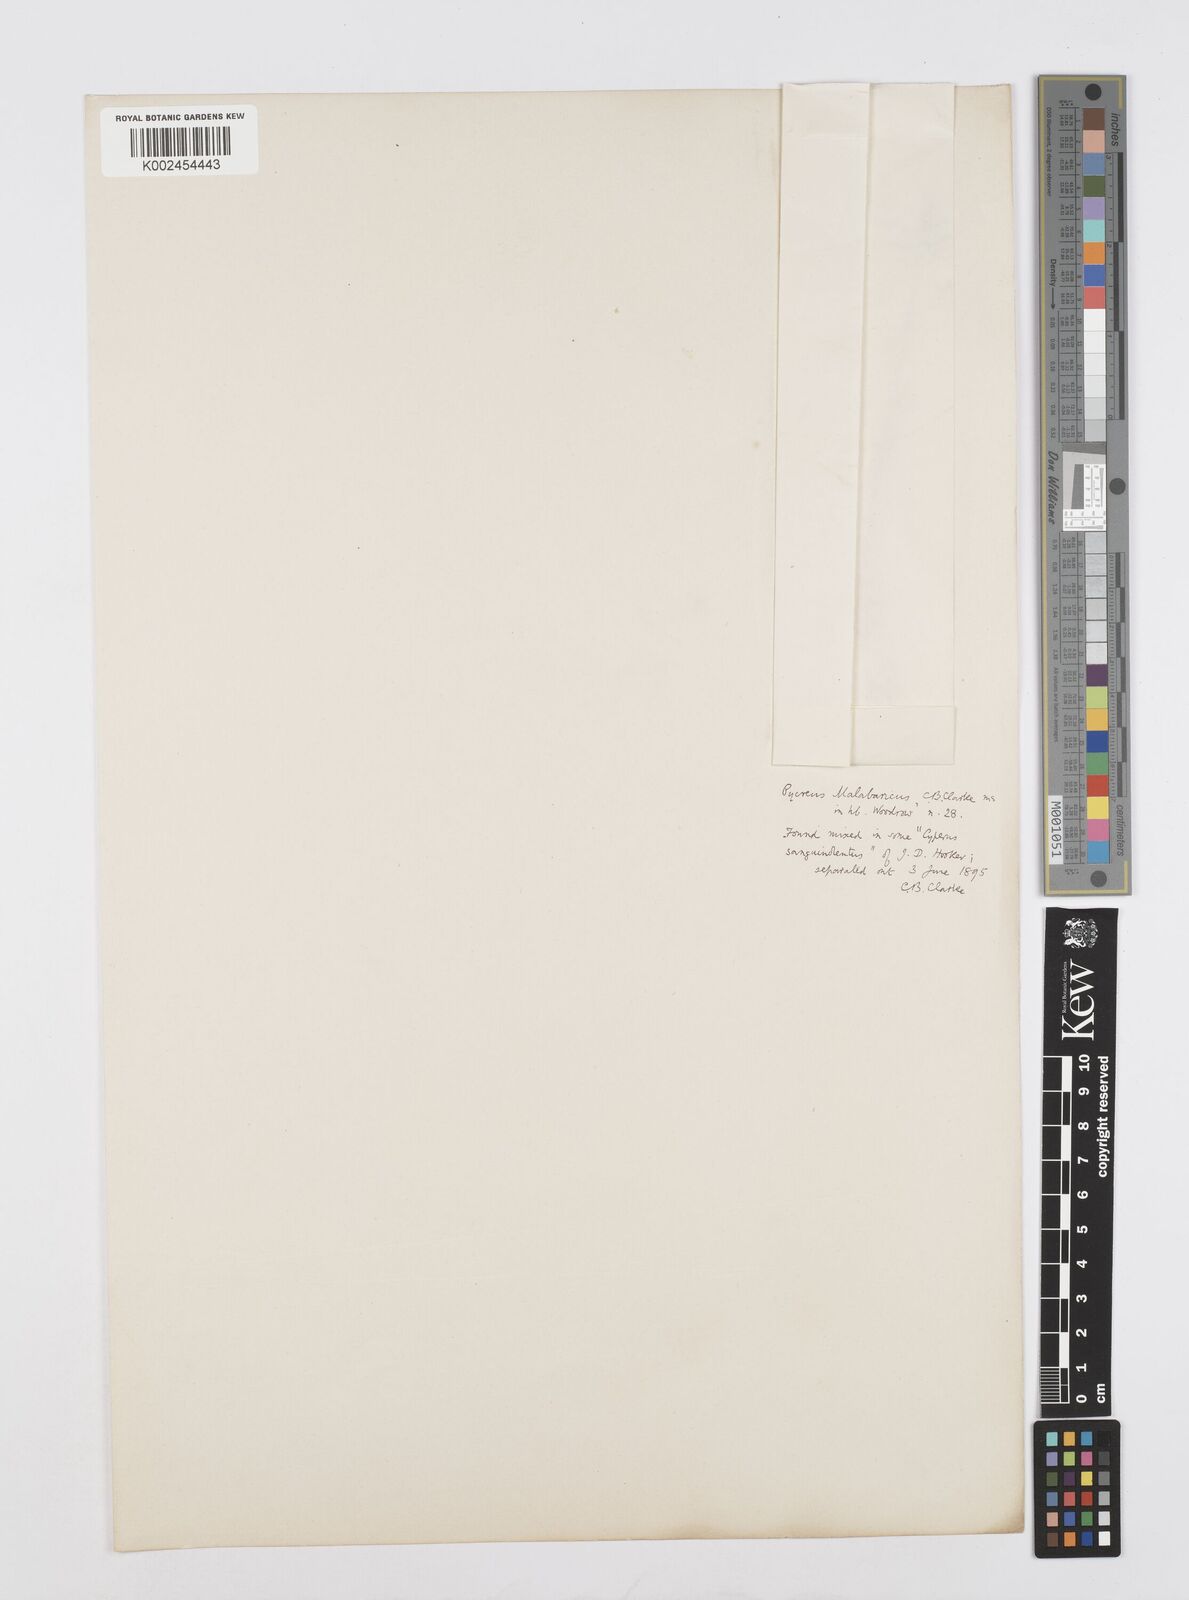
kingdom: Plantae
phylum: Tracheophyta
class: Liliopsida
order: Poales
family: Cyperaceae
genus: Cyperus
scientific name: Cyperus malabaricus
